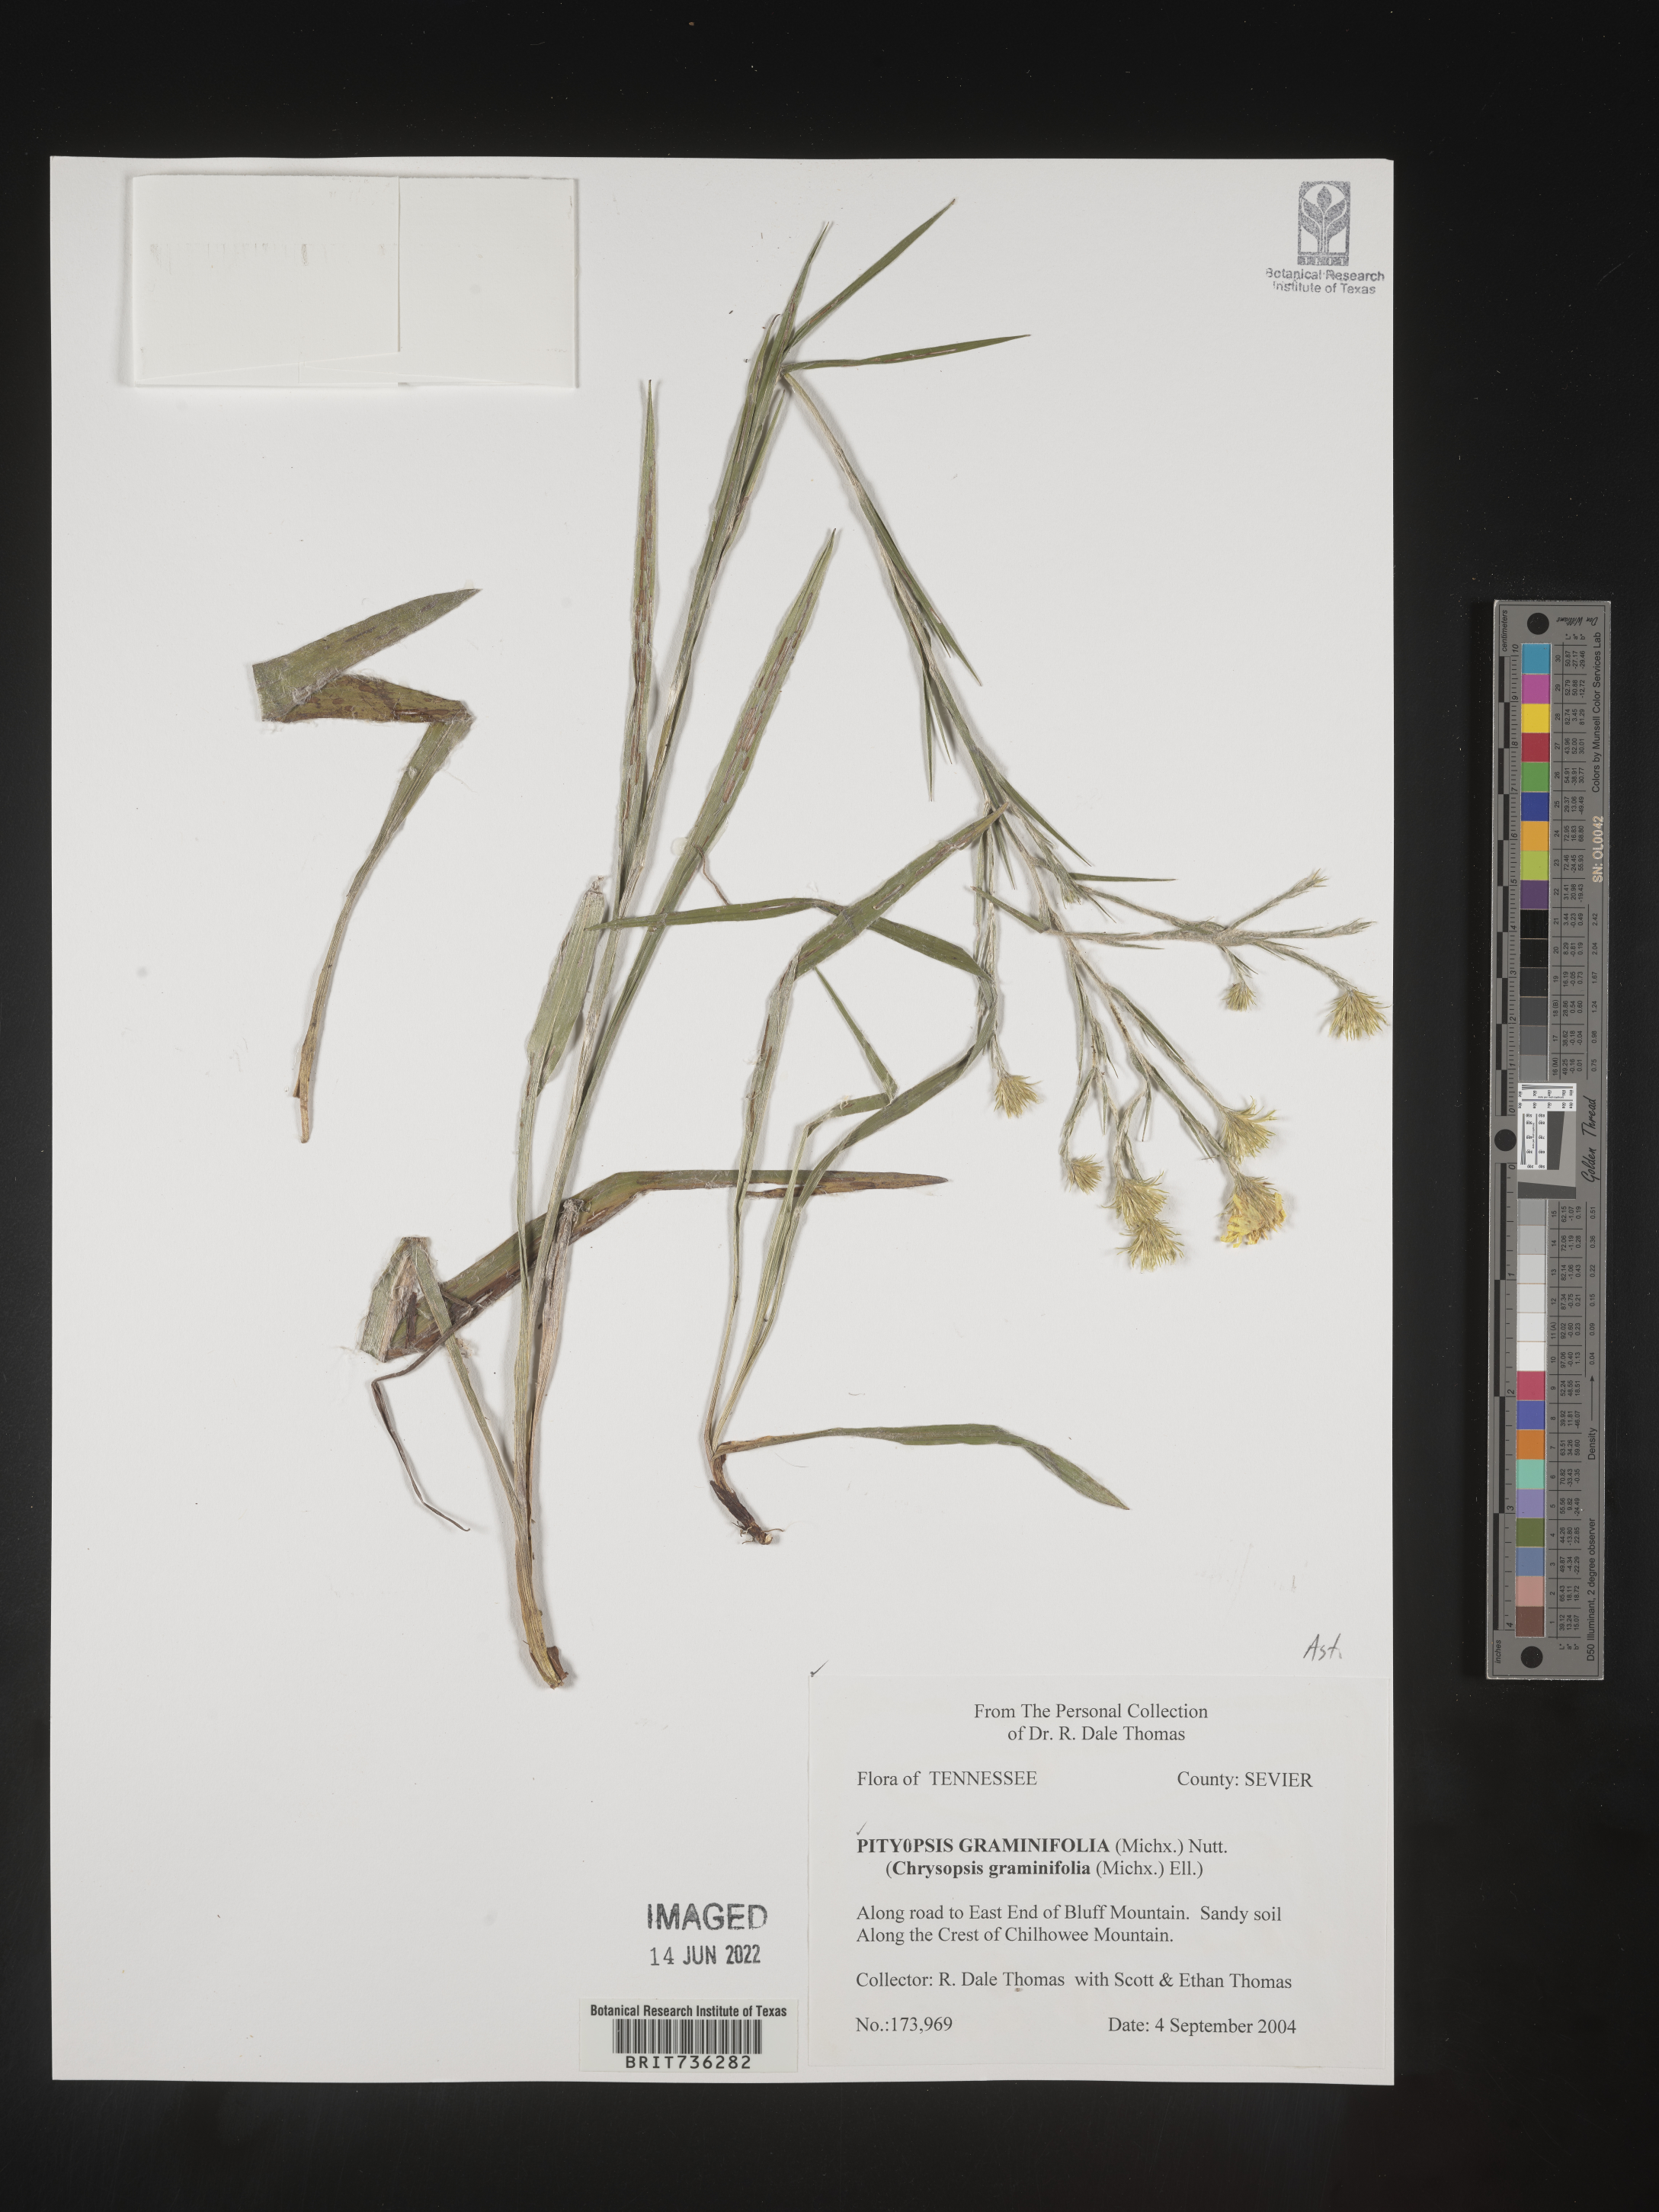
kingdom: Plantae
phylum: Tracheophyta
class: Magnoliopsida
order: Asterales
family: Asteraceae
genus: Pityopsis
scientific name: Pityopsis graminifolia
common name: Grass-leaf golden-aster
